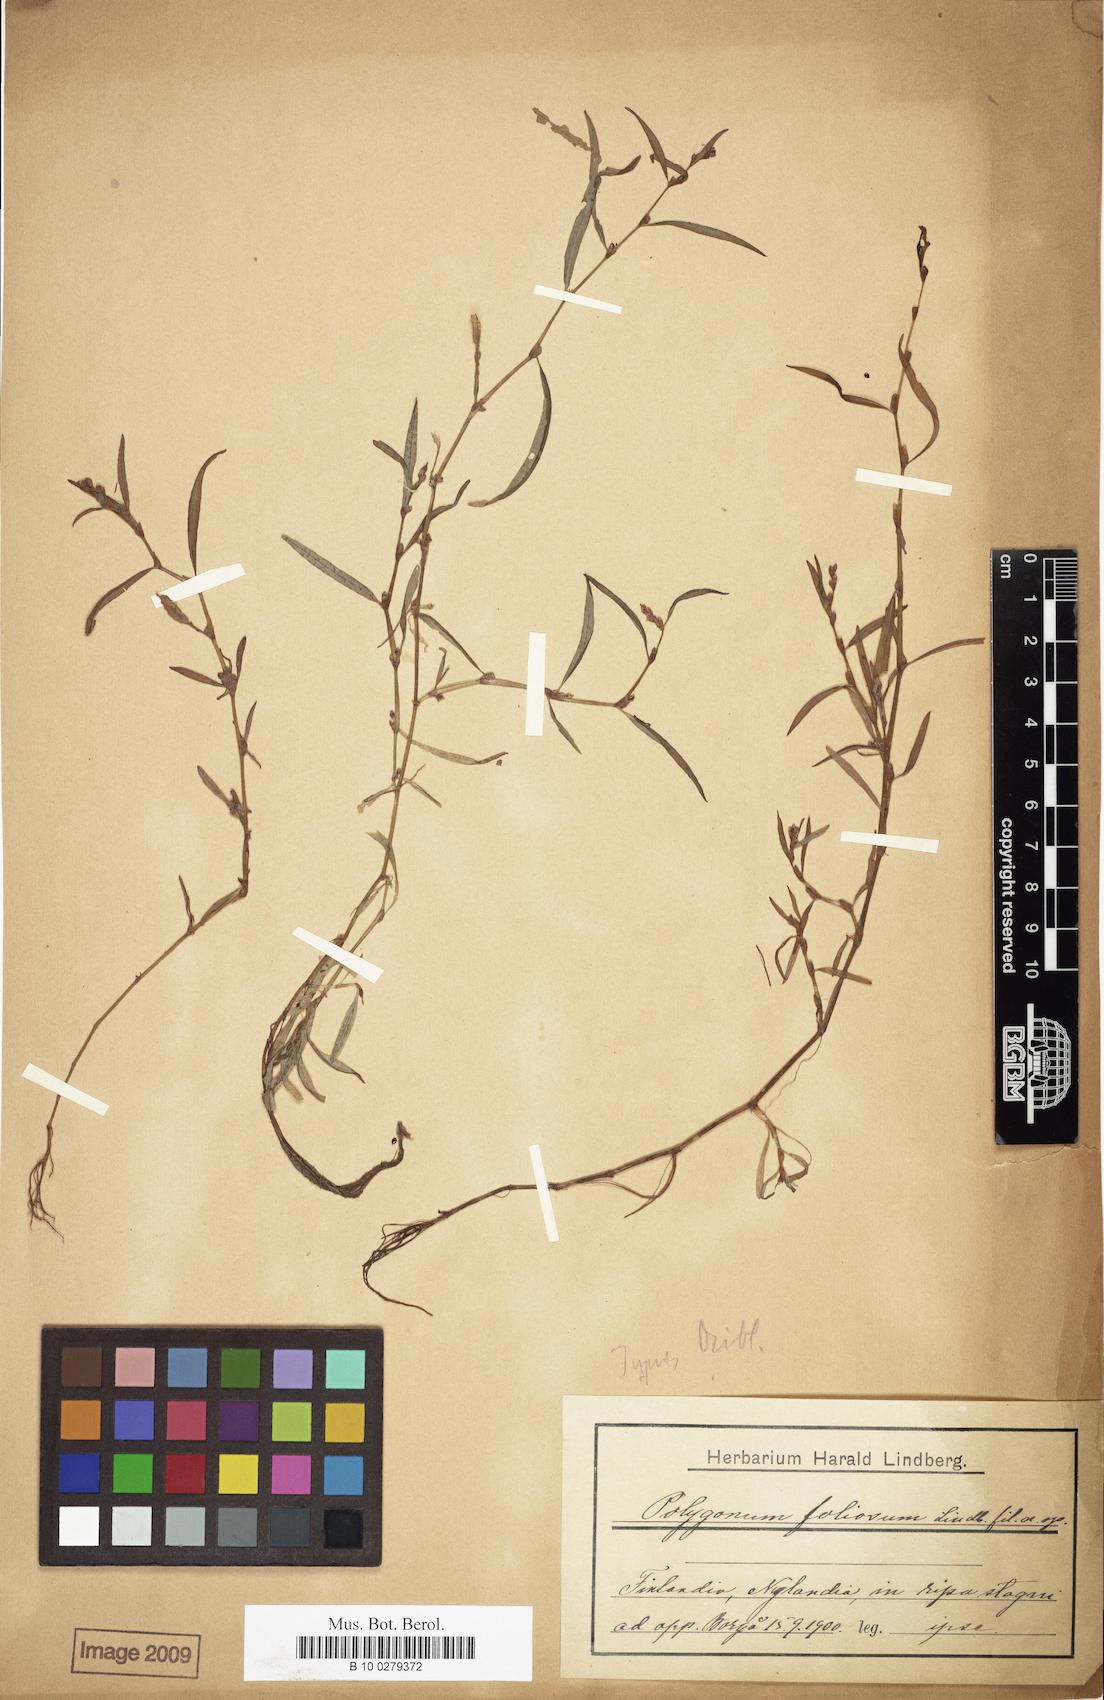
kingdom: Plantae
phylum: Tracheophyta
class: Magnoliopsida
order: Caryophyllales
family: Polygonaceae
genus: Persicaria
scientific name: Persicaria foliosa
